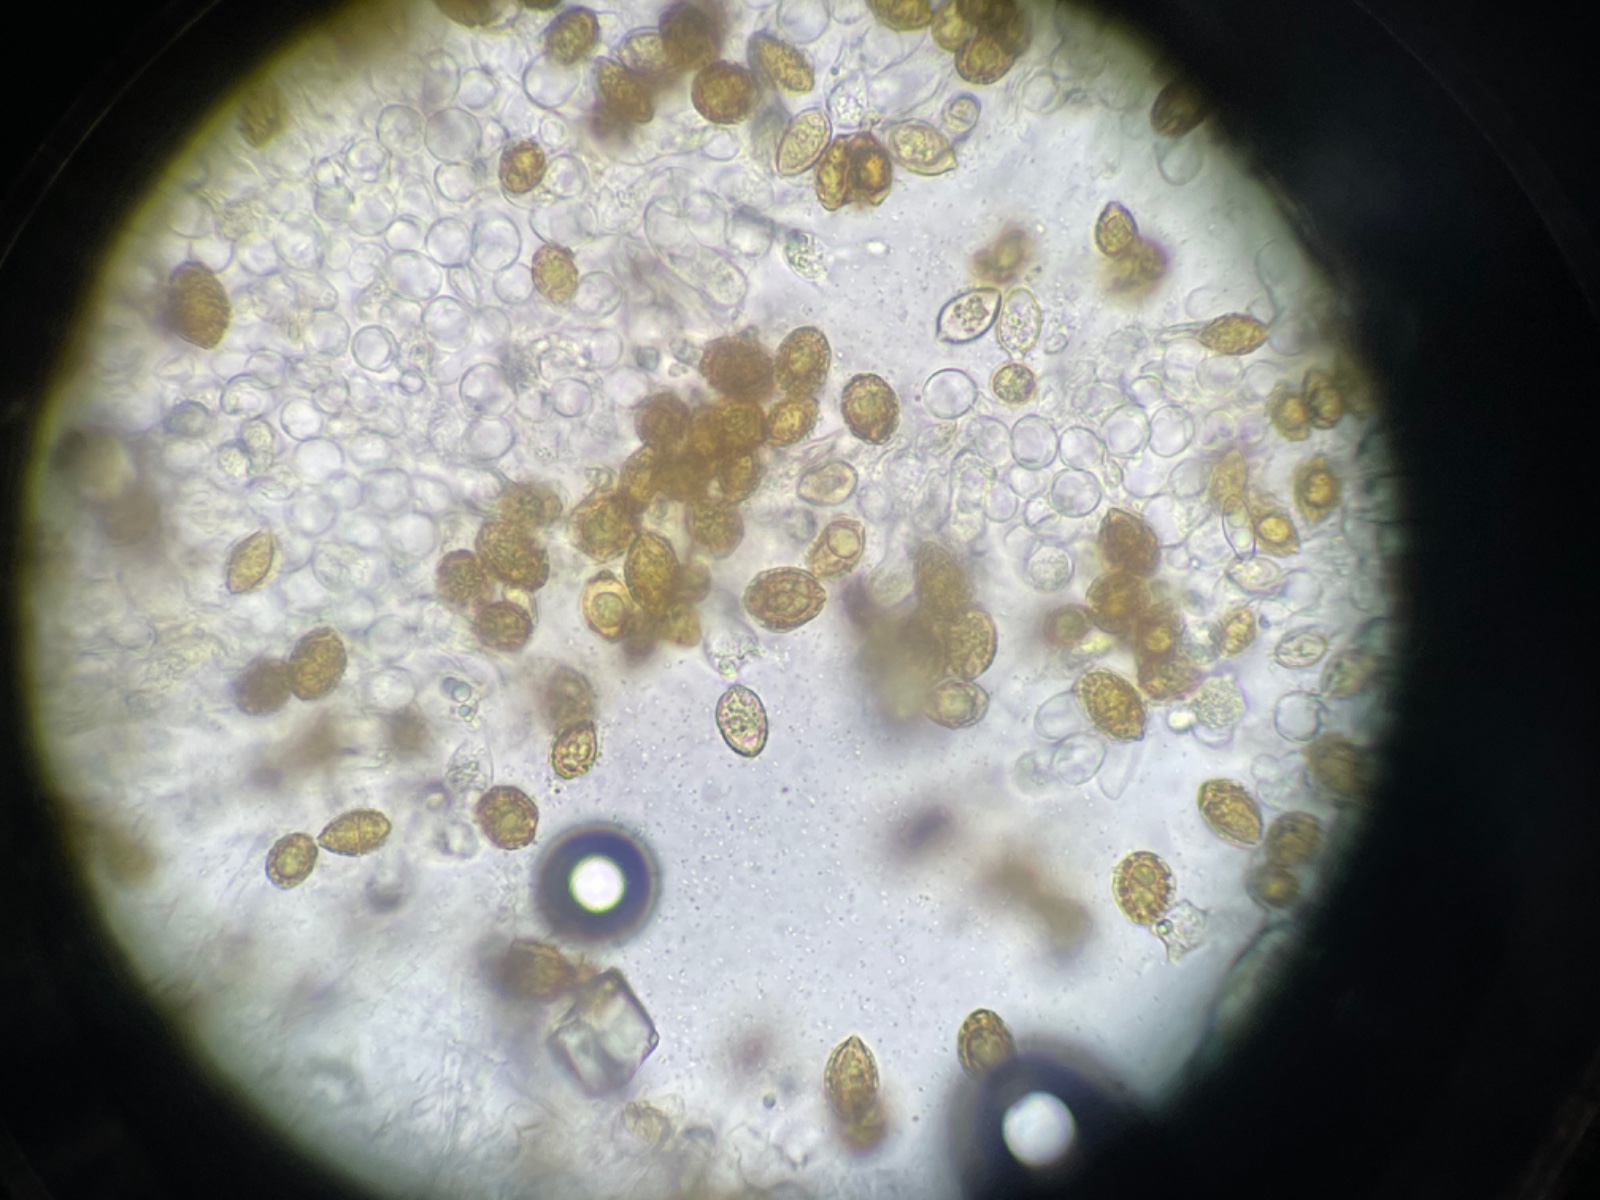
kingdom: Fungi
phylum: Basidiomycota
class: Agaricomycetes
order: Agaricales
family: Hymenogastraceae
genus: Hymenogaster
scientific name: Hymenogaster
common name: knoldtrøffel
